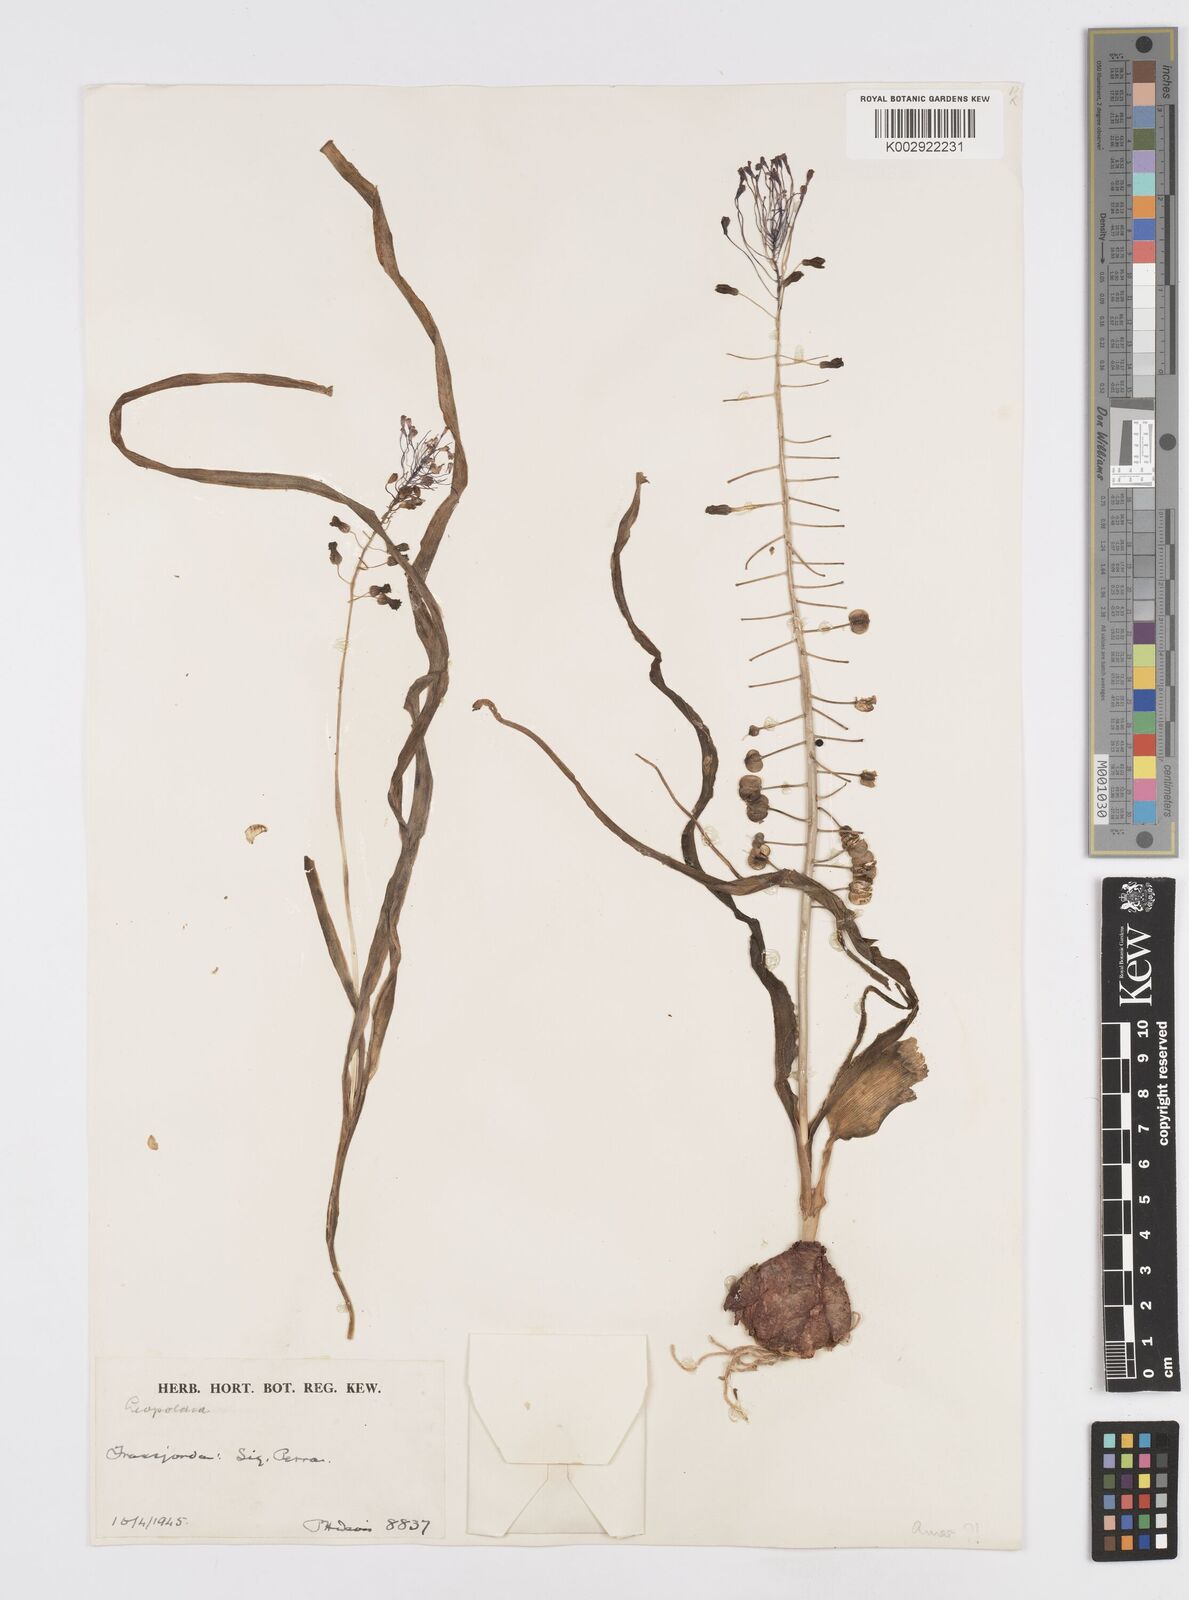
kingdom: Plantae
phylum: Tracheophyta
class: Liliopsida
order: Asparagales
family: Asparagaceae
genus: Muscari
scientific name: Muscari comosum
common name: Tassel hyacinth
